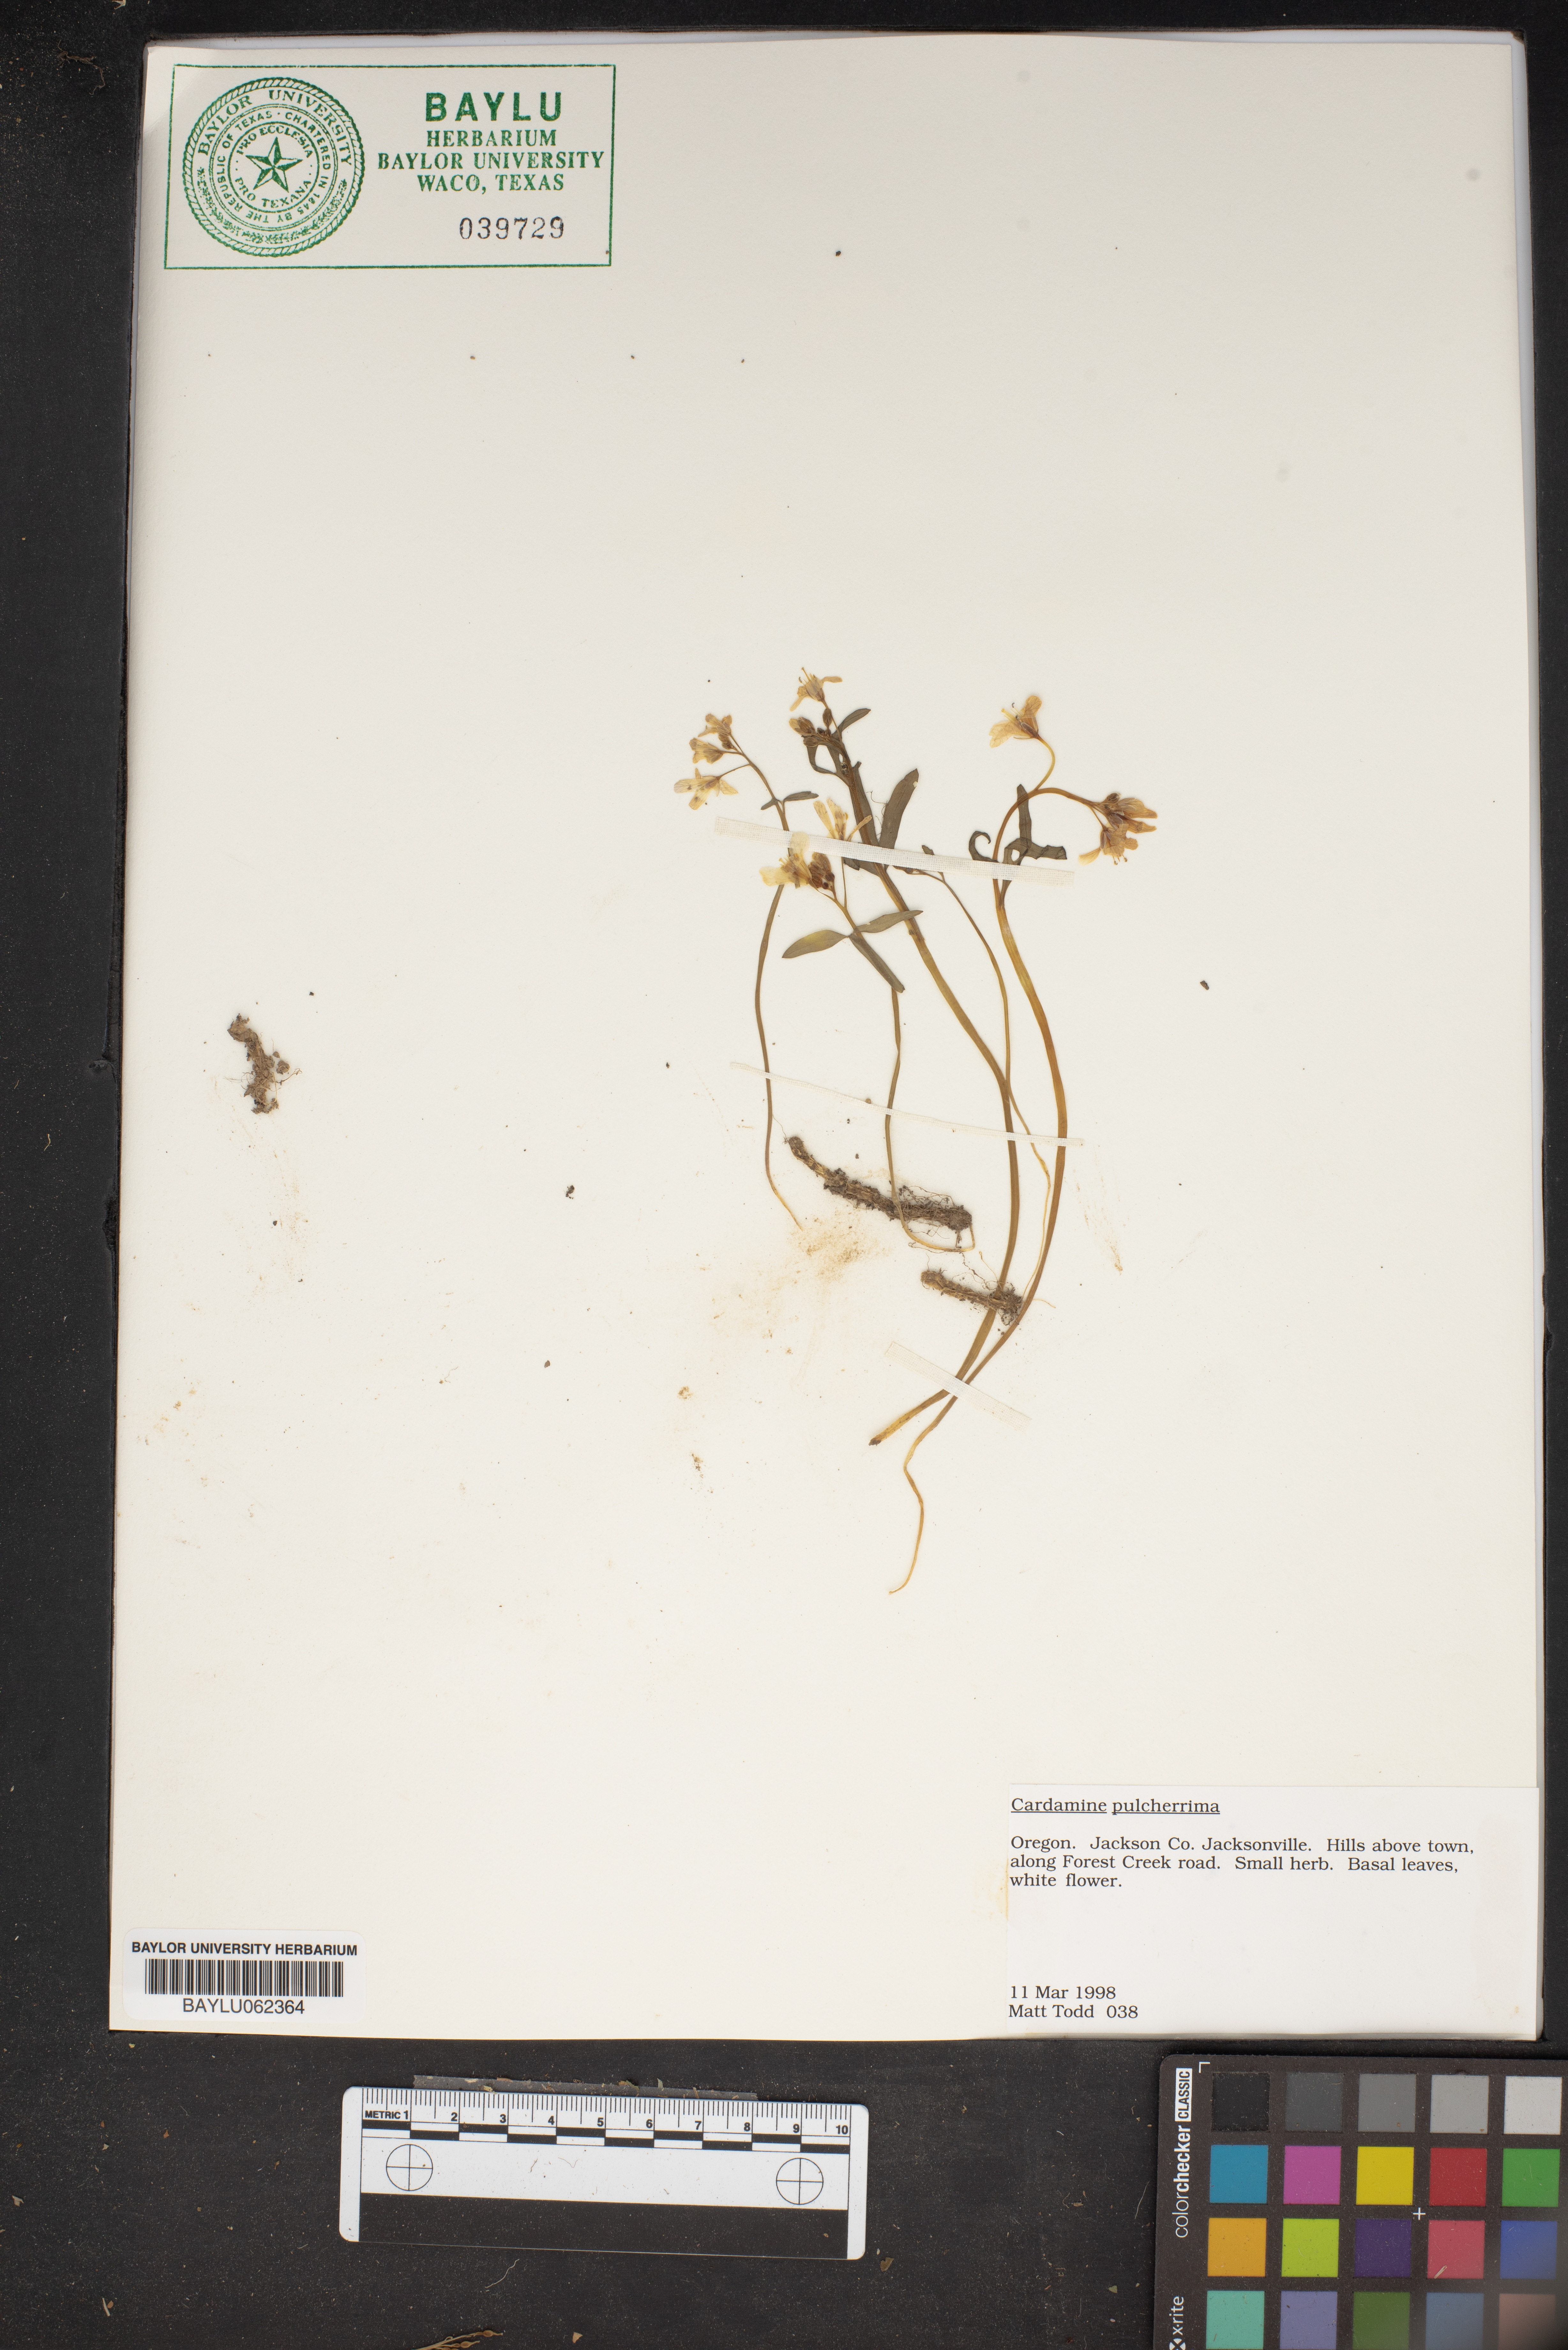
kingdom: Plantae
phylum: Tracheophyta
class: Magnoliopsida
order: Brassicales
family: Brassicaceae
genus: Cardamine
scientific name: Cardamine nuttallii
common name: Nuttall's toothwort
